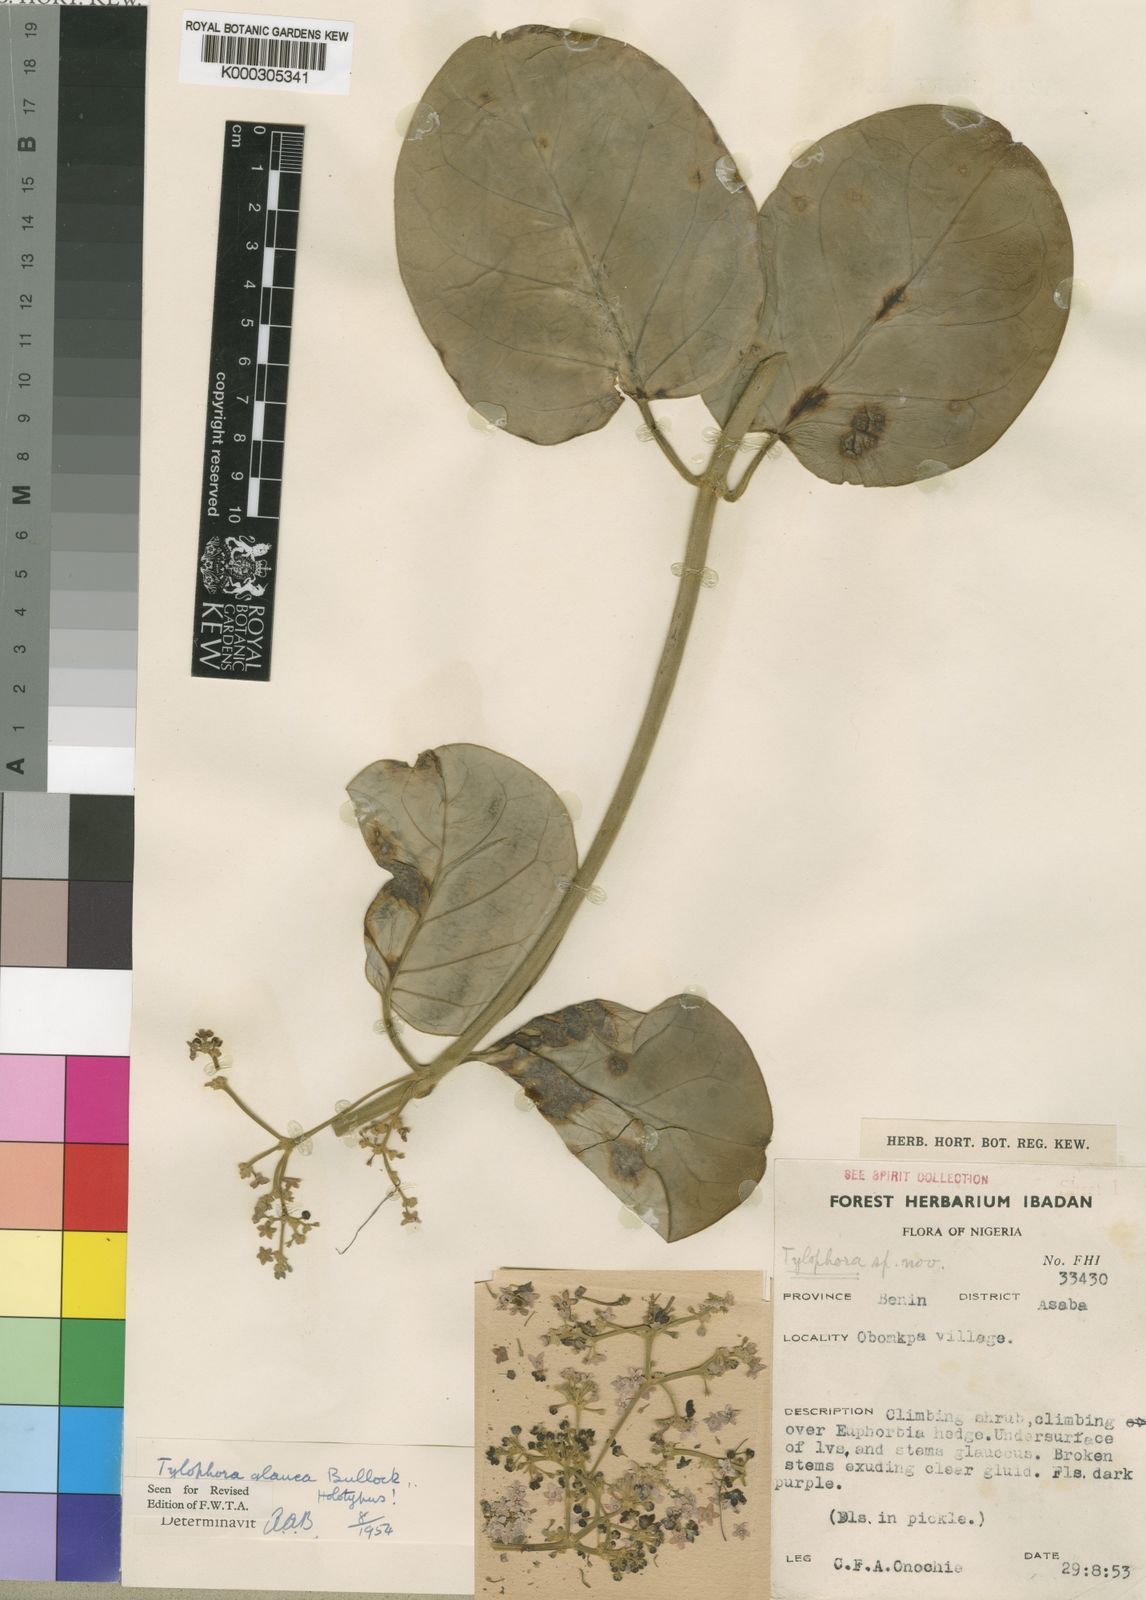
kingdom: Plantae
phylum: Tracheophyta
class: Magnoliopsida
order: Gentianales
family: Apocynaceae
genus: Vincetoxicum
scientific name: Vincetoxicum cameroonicum
